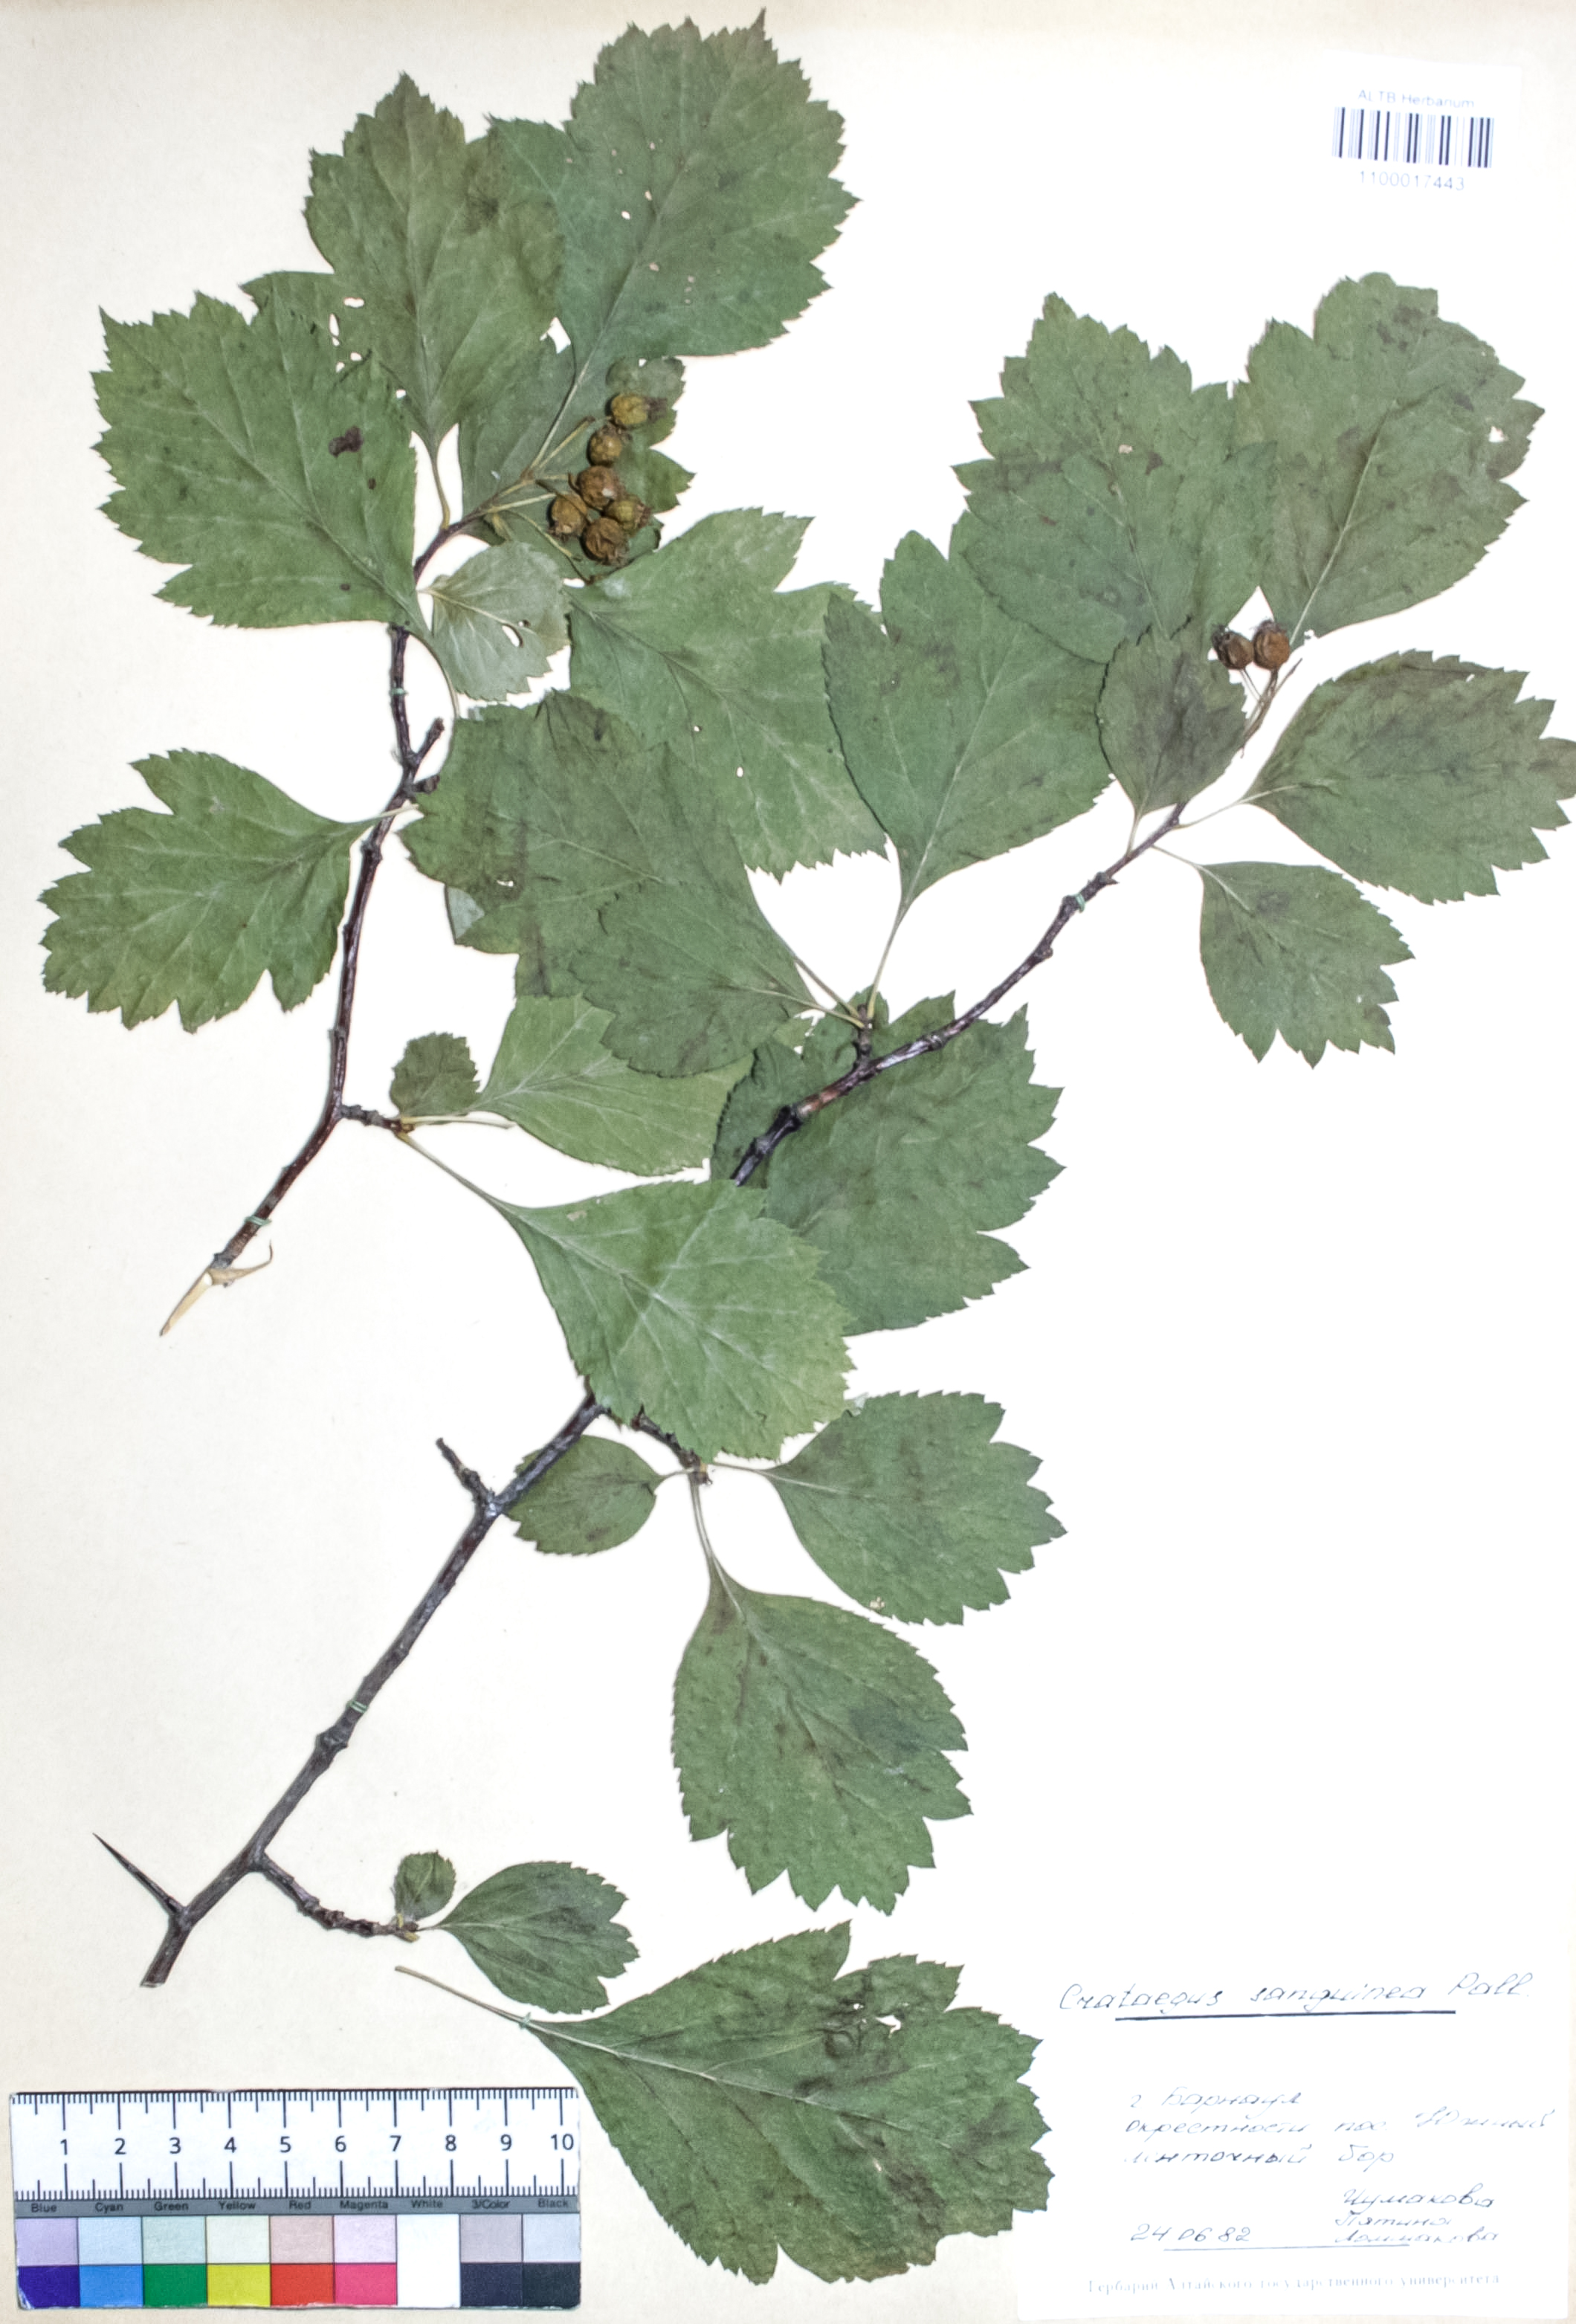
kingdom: Plantae
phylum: Tracheophyta
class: Magnoliopsida
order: Rosales
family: Rosaceae
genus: Crataegus
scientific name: Crataegus sanguinea
